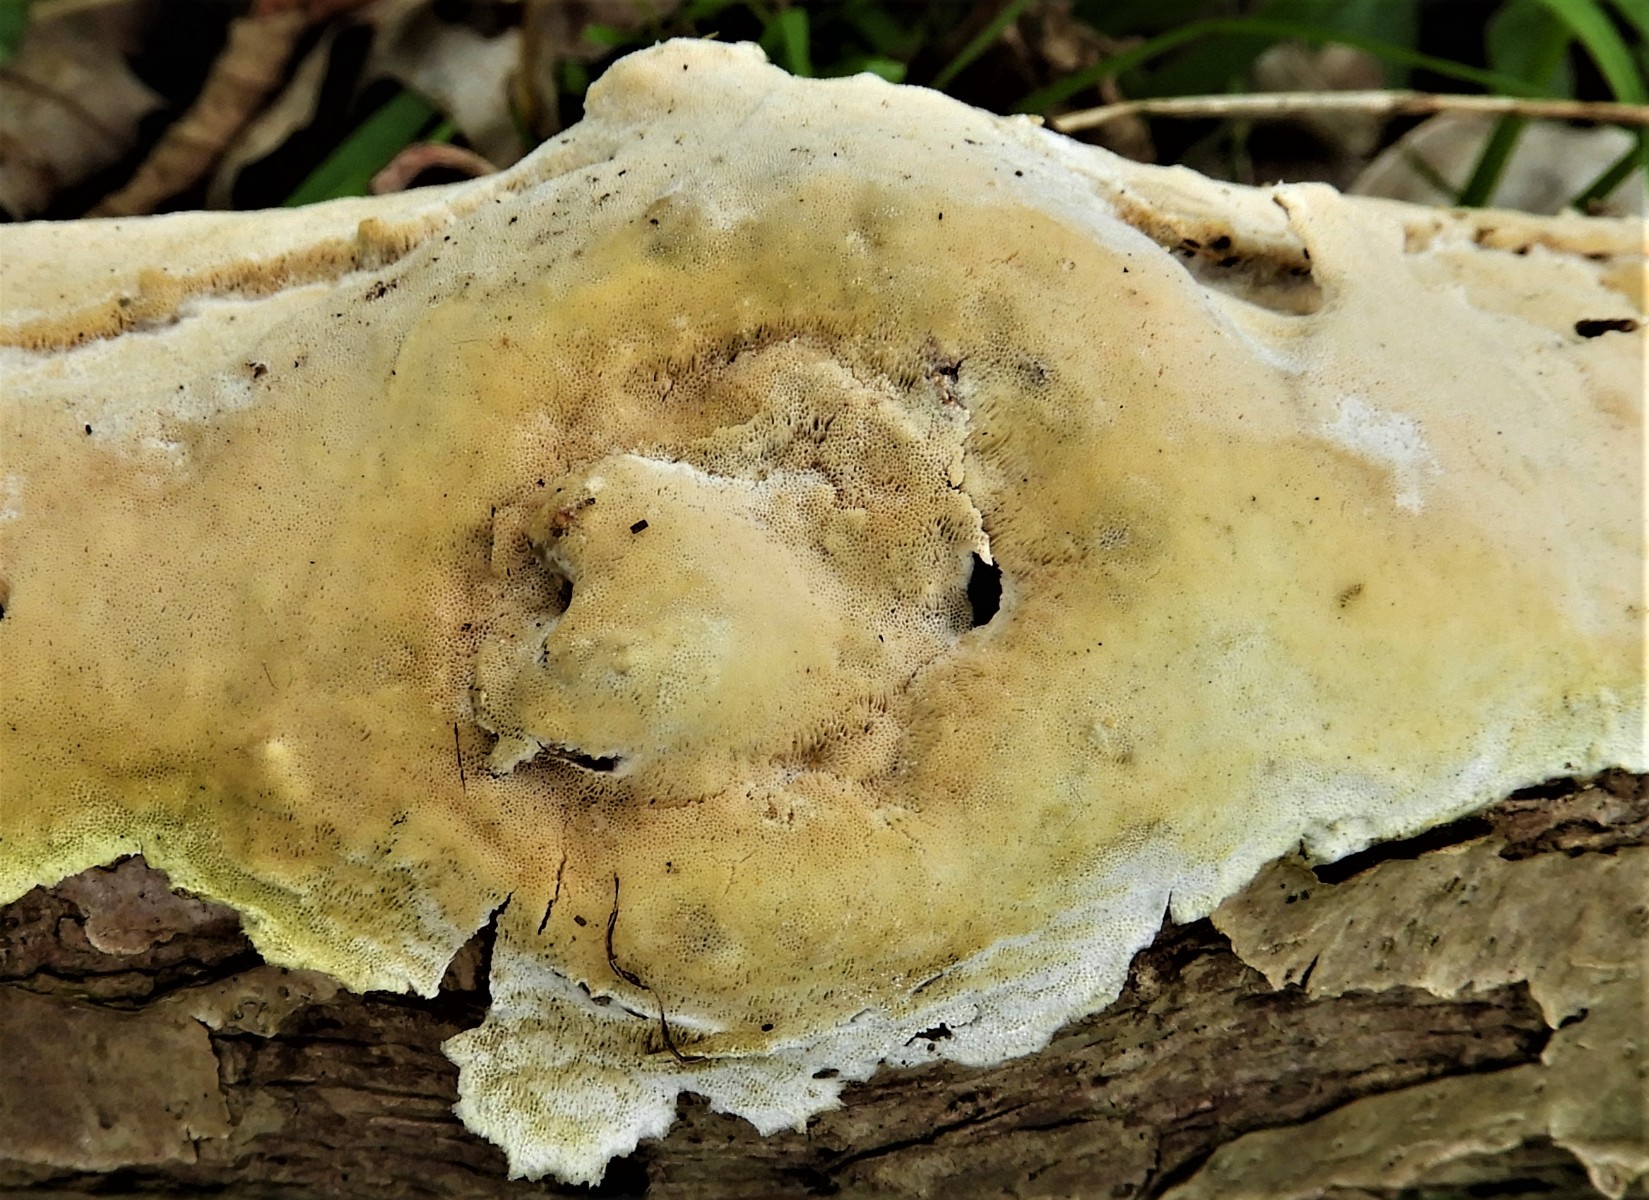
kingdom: Fungi
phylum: Basidiomycota
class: Agaricomycetes
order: Polyporales
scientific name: Polyporales
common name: poresvampordenen
